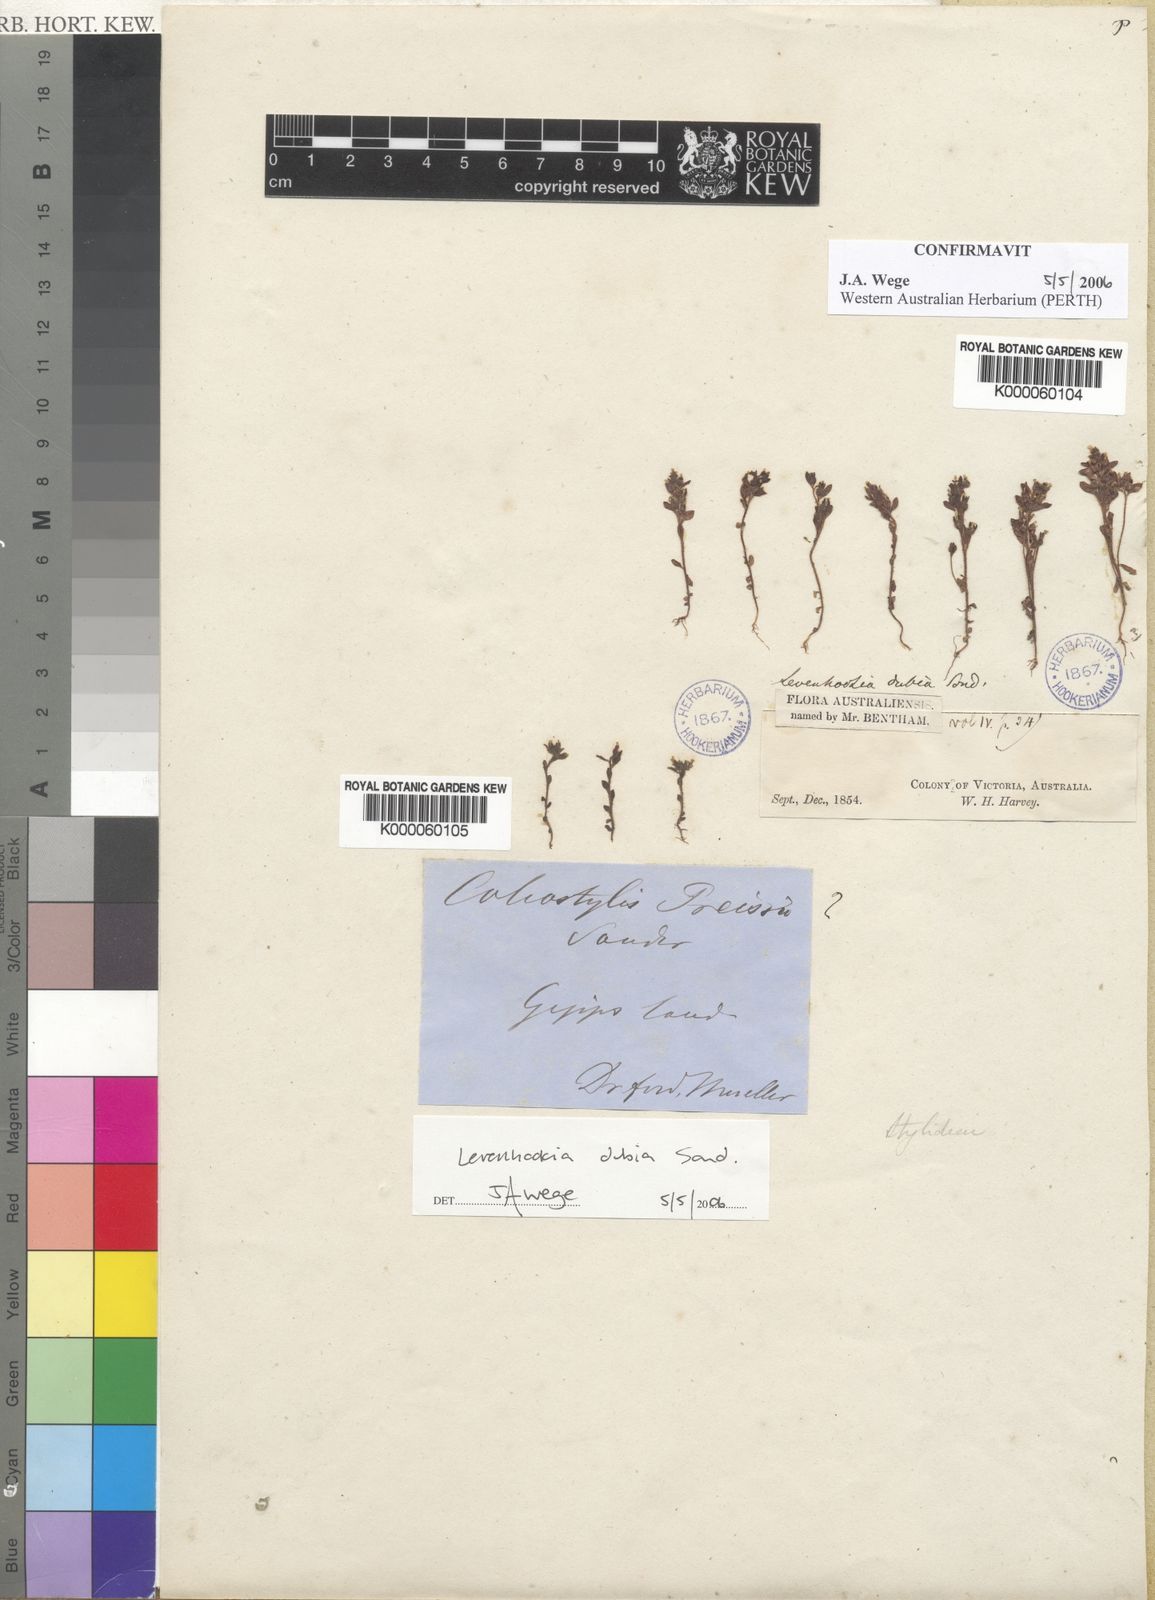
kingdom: Plantae
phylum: Tracheophyta
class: Magnoliopsida
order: Asterales
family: Stylidiaceae
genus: Levenhookia
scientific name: Levenhookia dubia
